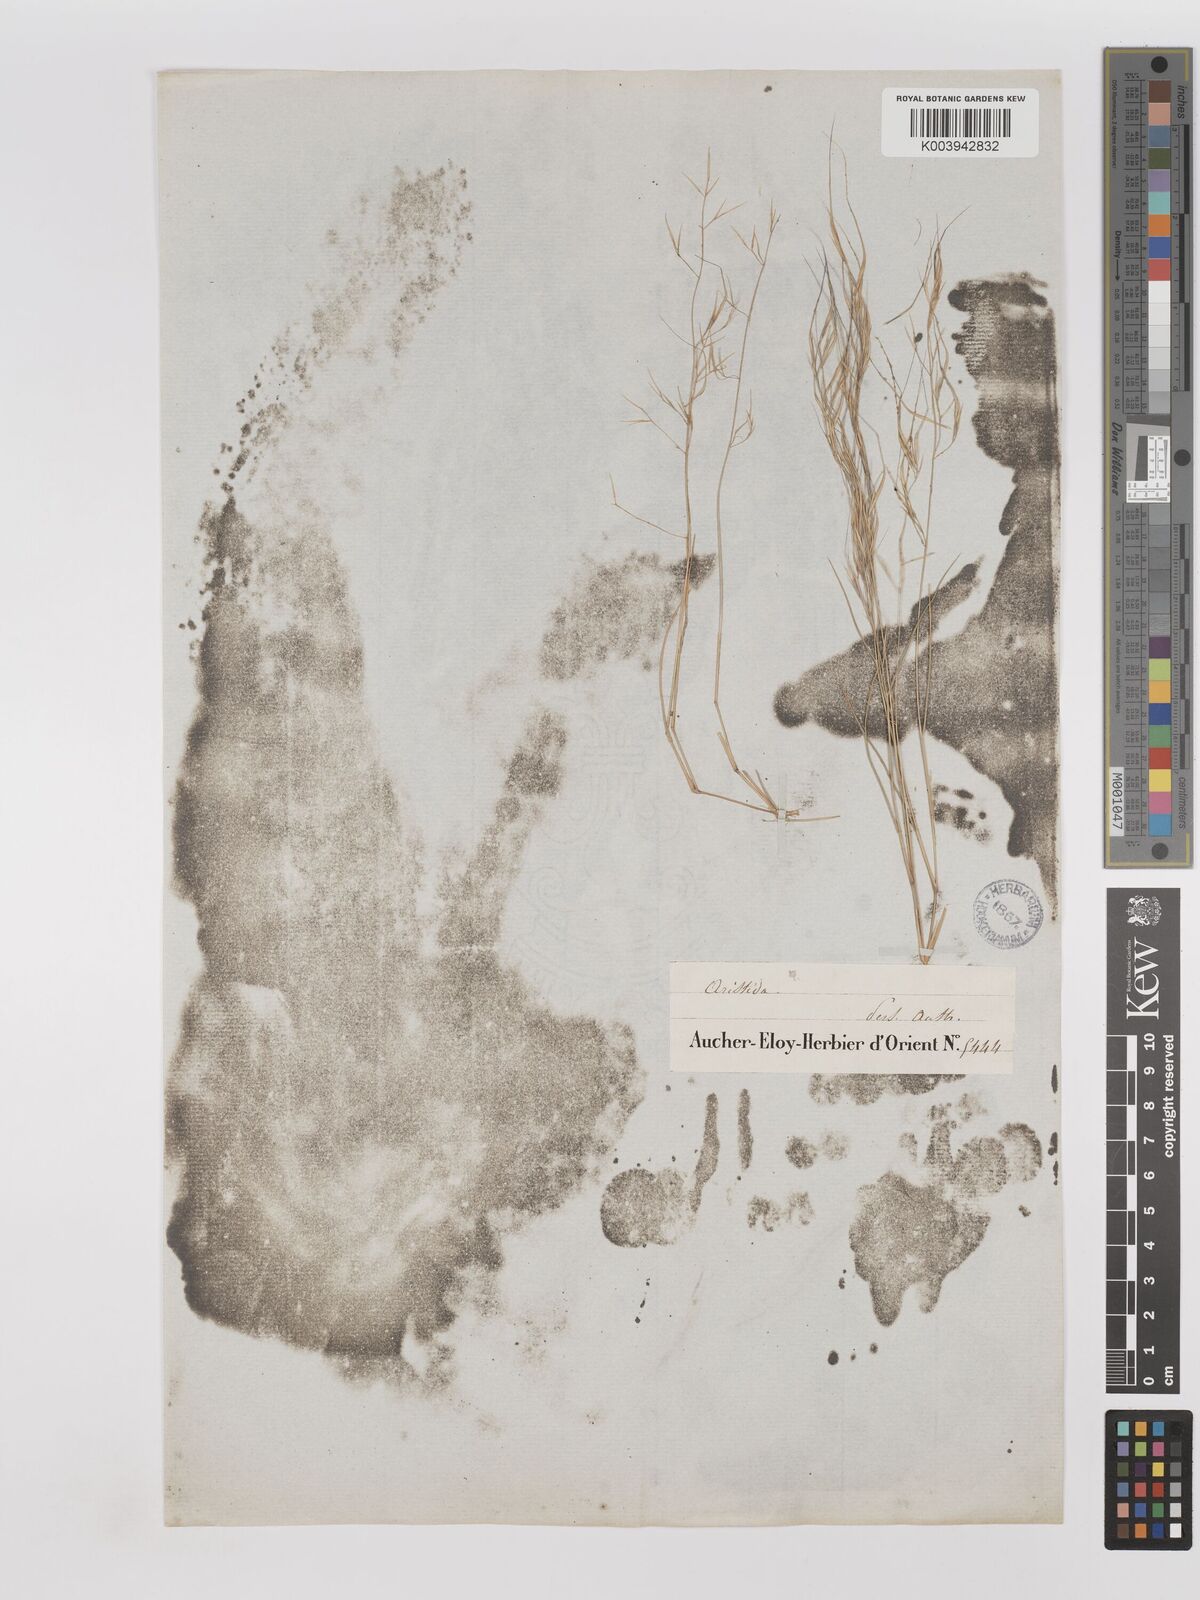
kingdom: Plantae
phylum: Tracheophyta
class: Liliopsida
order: Poales
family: Poaceae
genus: Aristida
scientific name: Aristida abnormis
